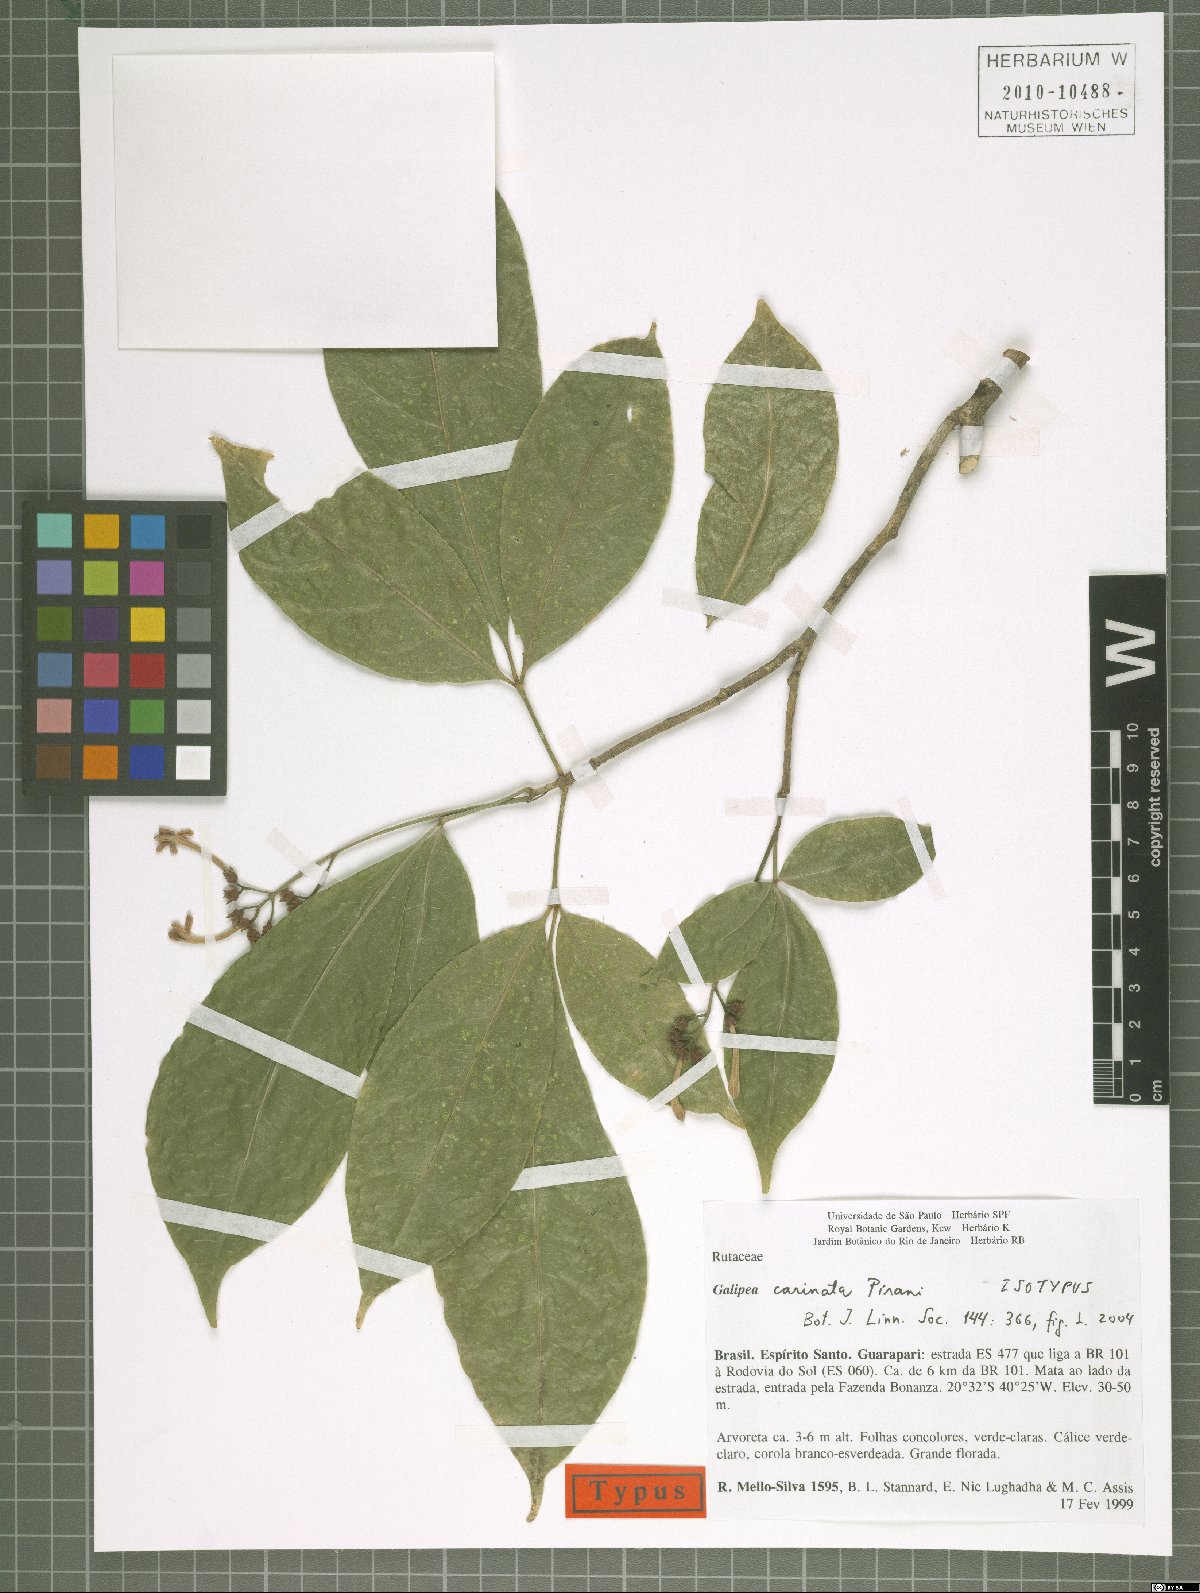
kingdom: Plantae
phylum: Tracheophyta
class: Magnoliopsida
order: Sapindales
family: Rutaceae
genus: Galipea
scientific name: Galipea carinata
